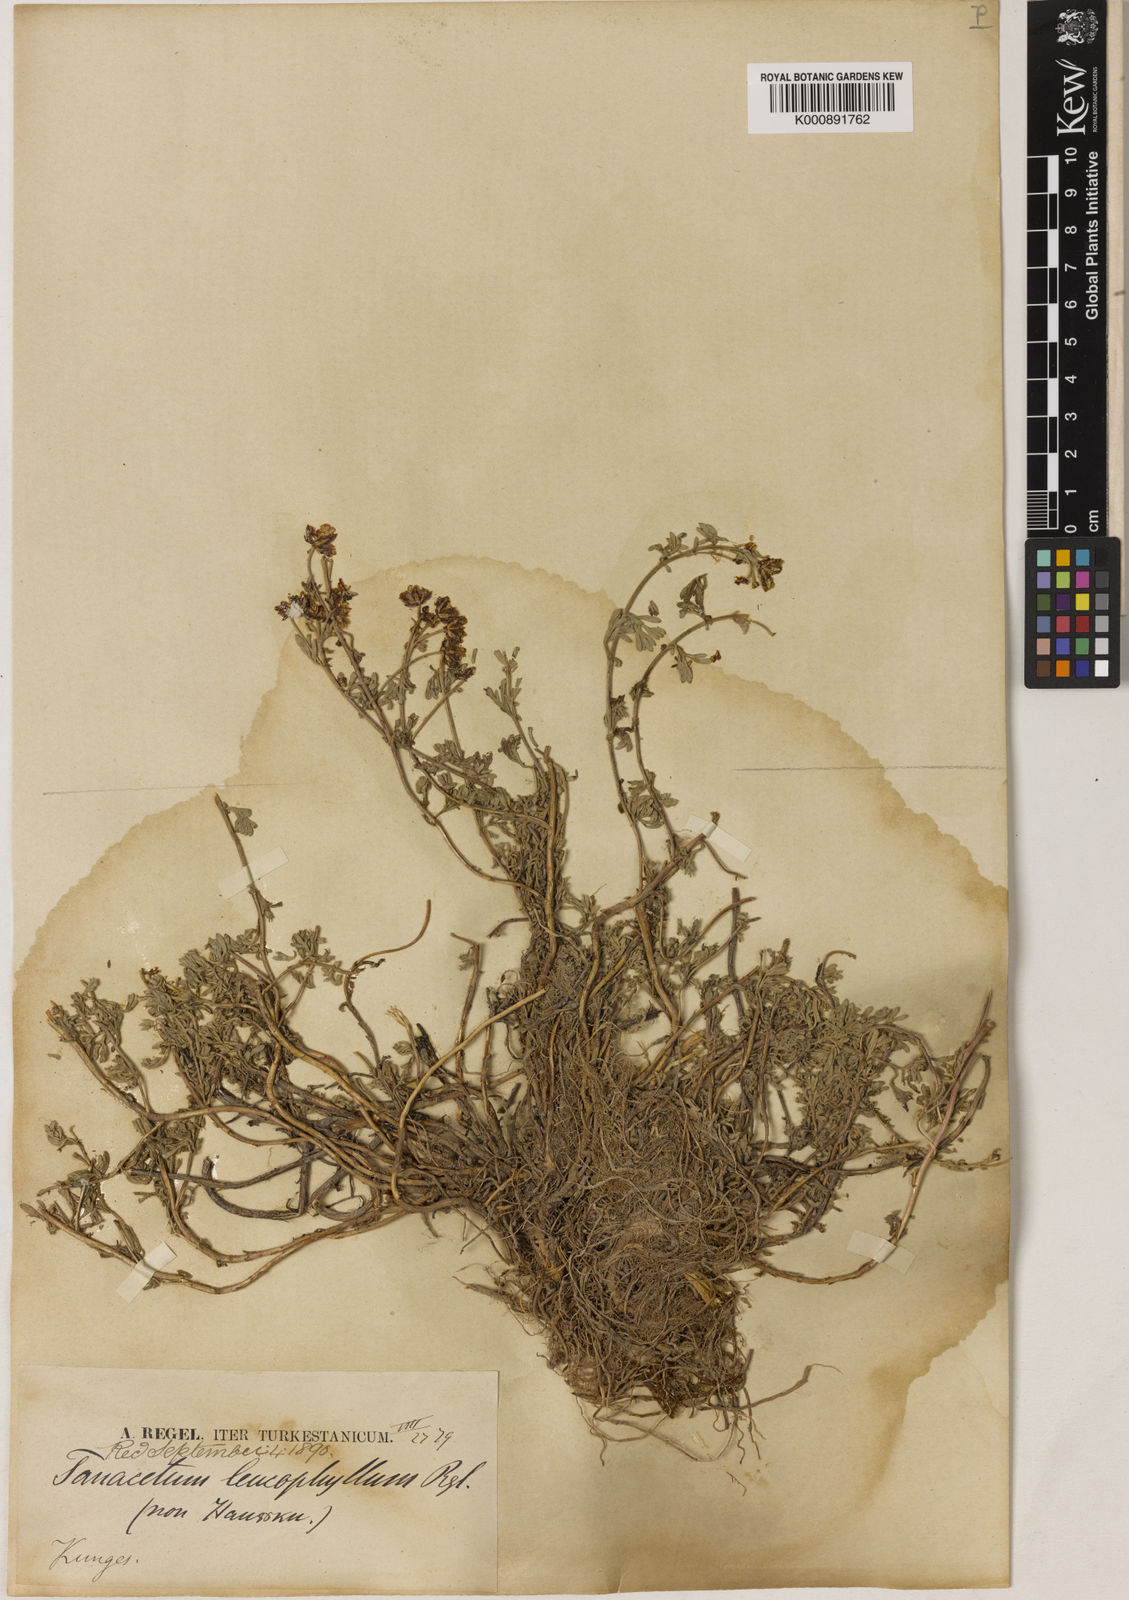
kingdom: Plantae
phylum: Tracheophyta
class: Magnoliopsida
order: Asterales
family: Asteraceae
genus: Hippolytia
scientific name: Hippolytia herderi
